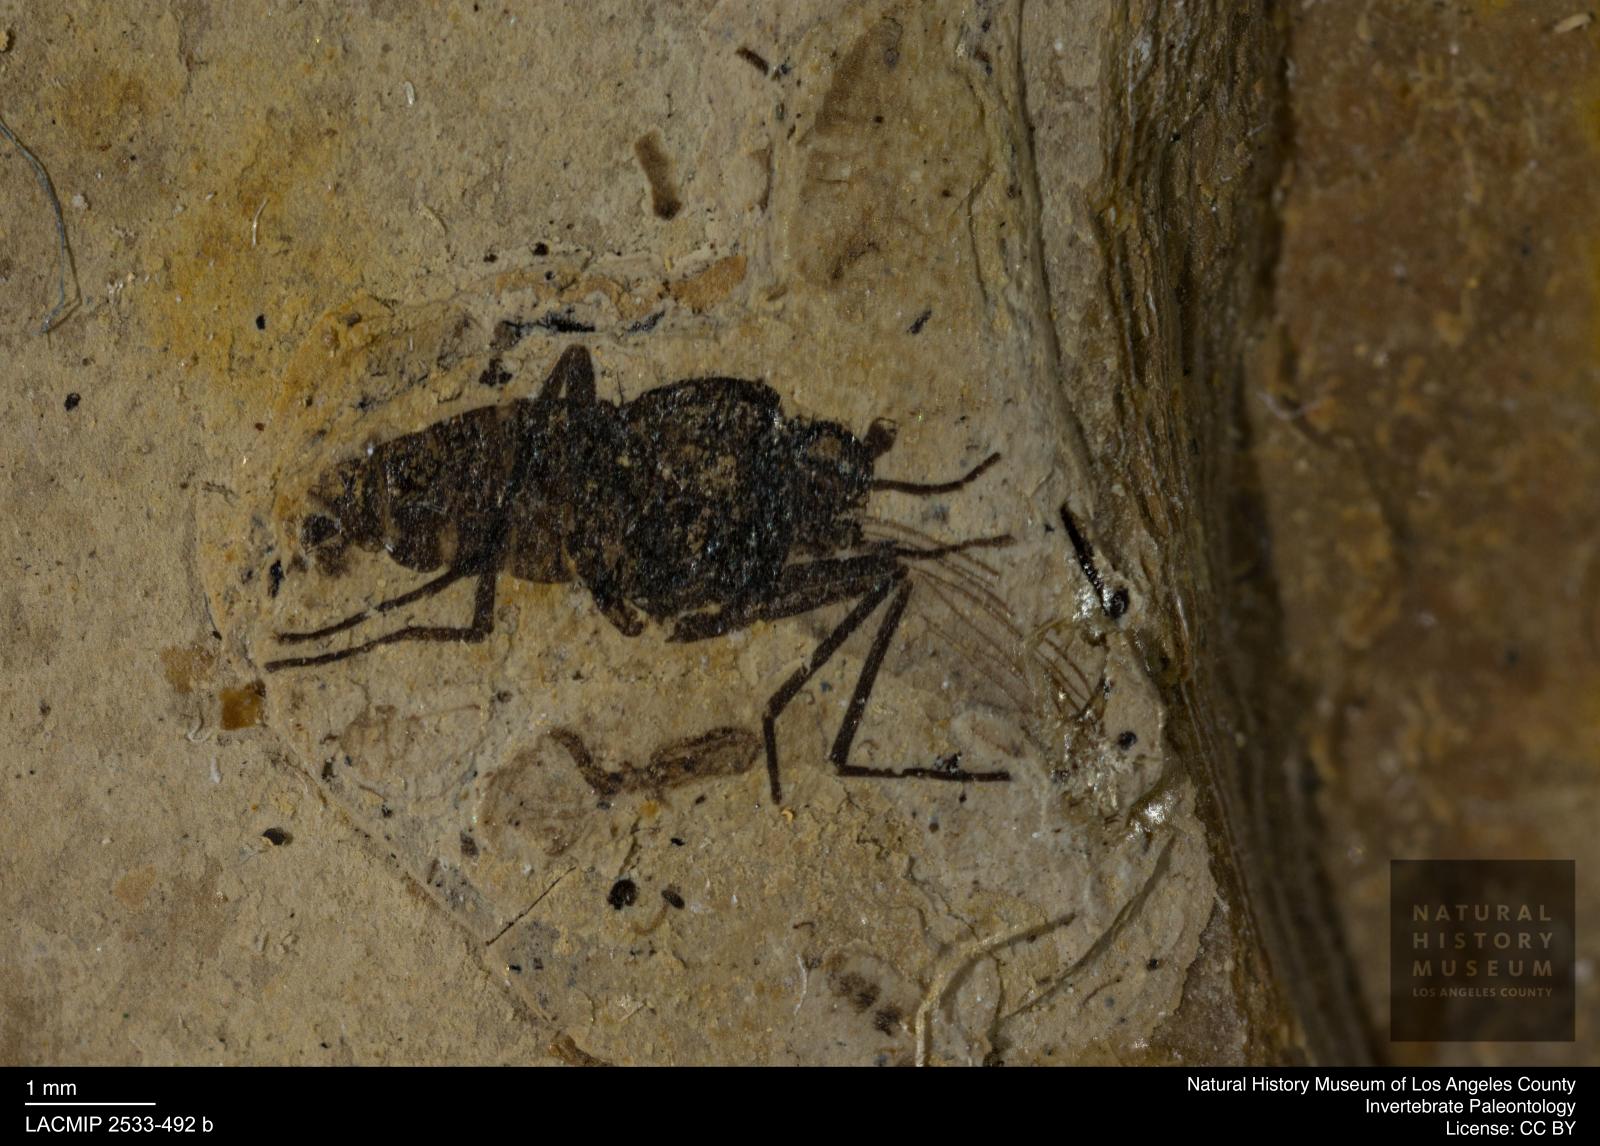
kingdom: Animalia
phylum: Arthropoda
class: Insecta
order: Diptera
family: Dolichopodidae
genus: Oncopygius
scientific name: Oncopygius oligocaenicus
